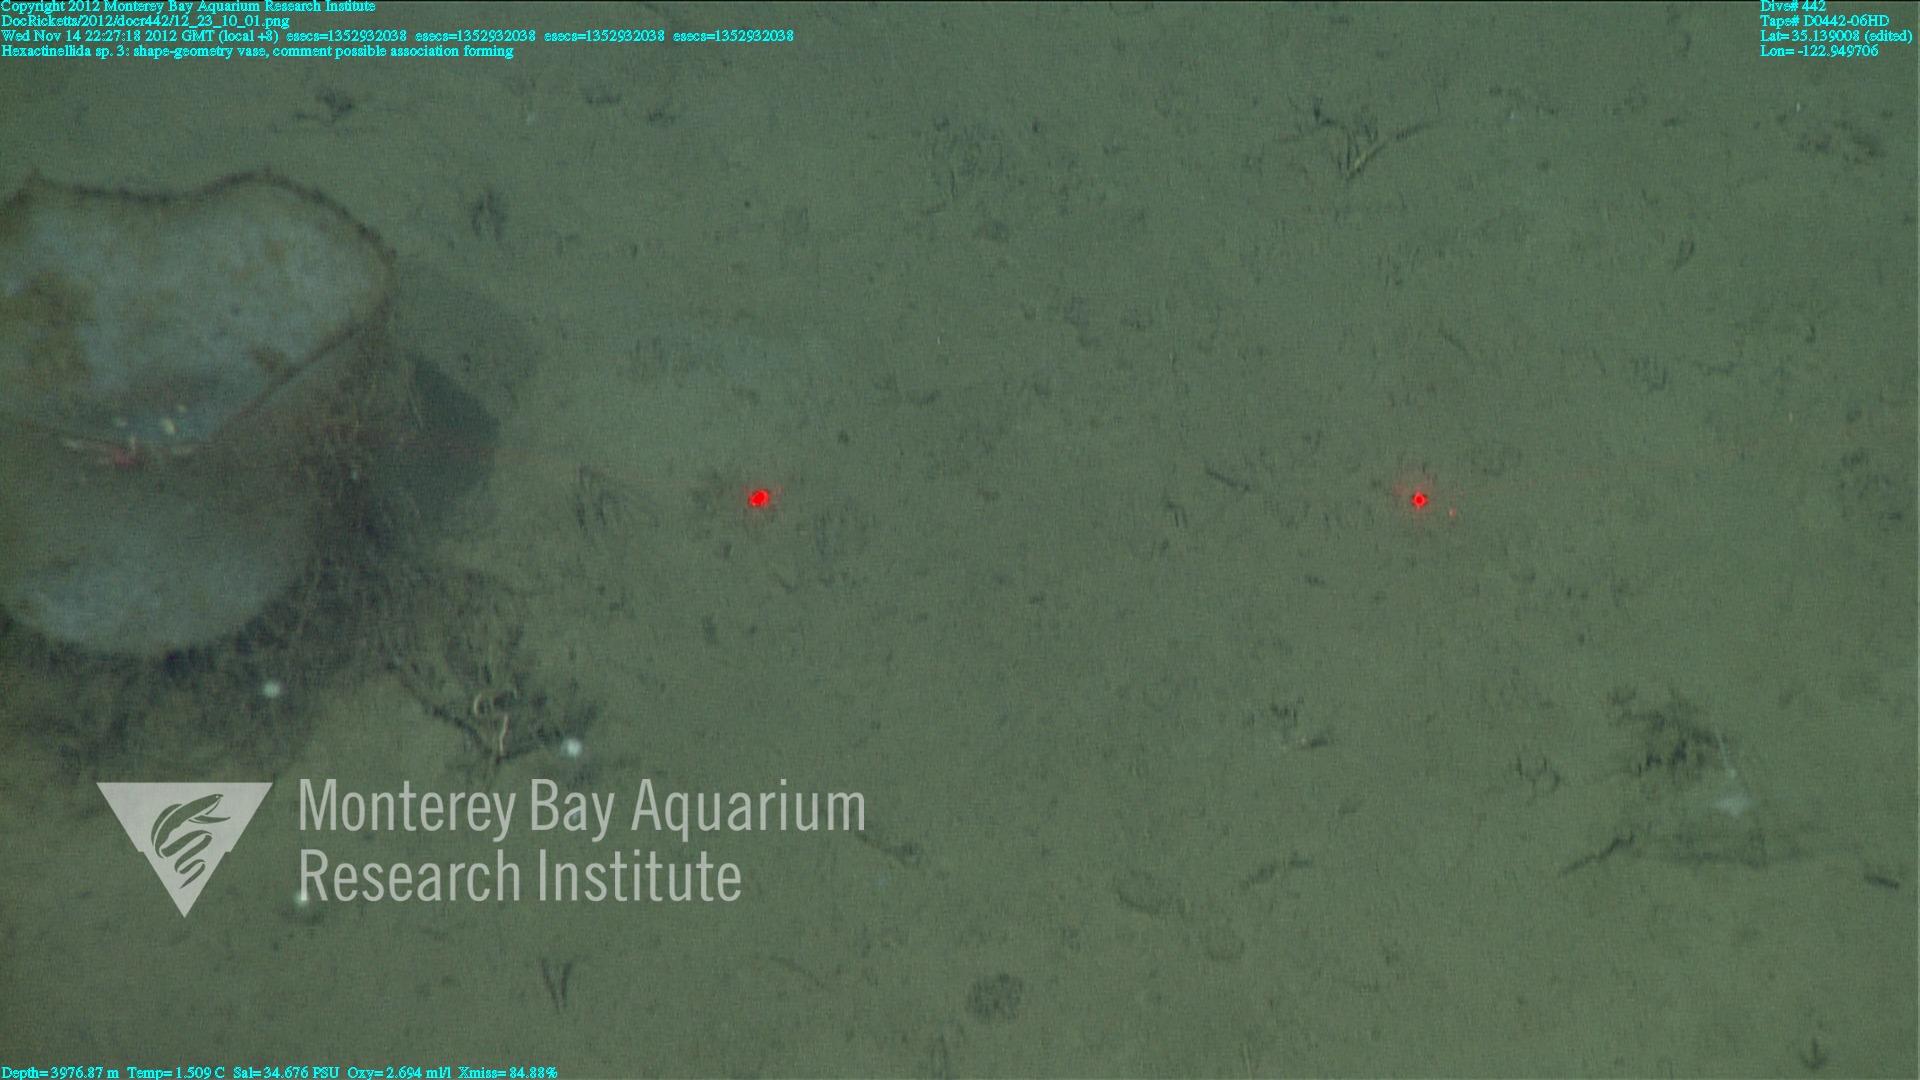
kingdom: Animalia
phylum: Porifera
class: Demospongiae
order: Poecilosclerida
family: Cladorhizidae
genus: Cladorhiza
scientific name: Cladorhiza
